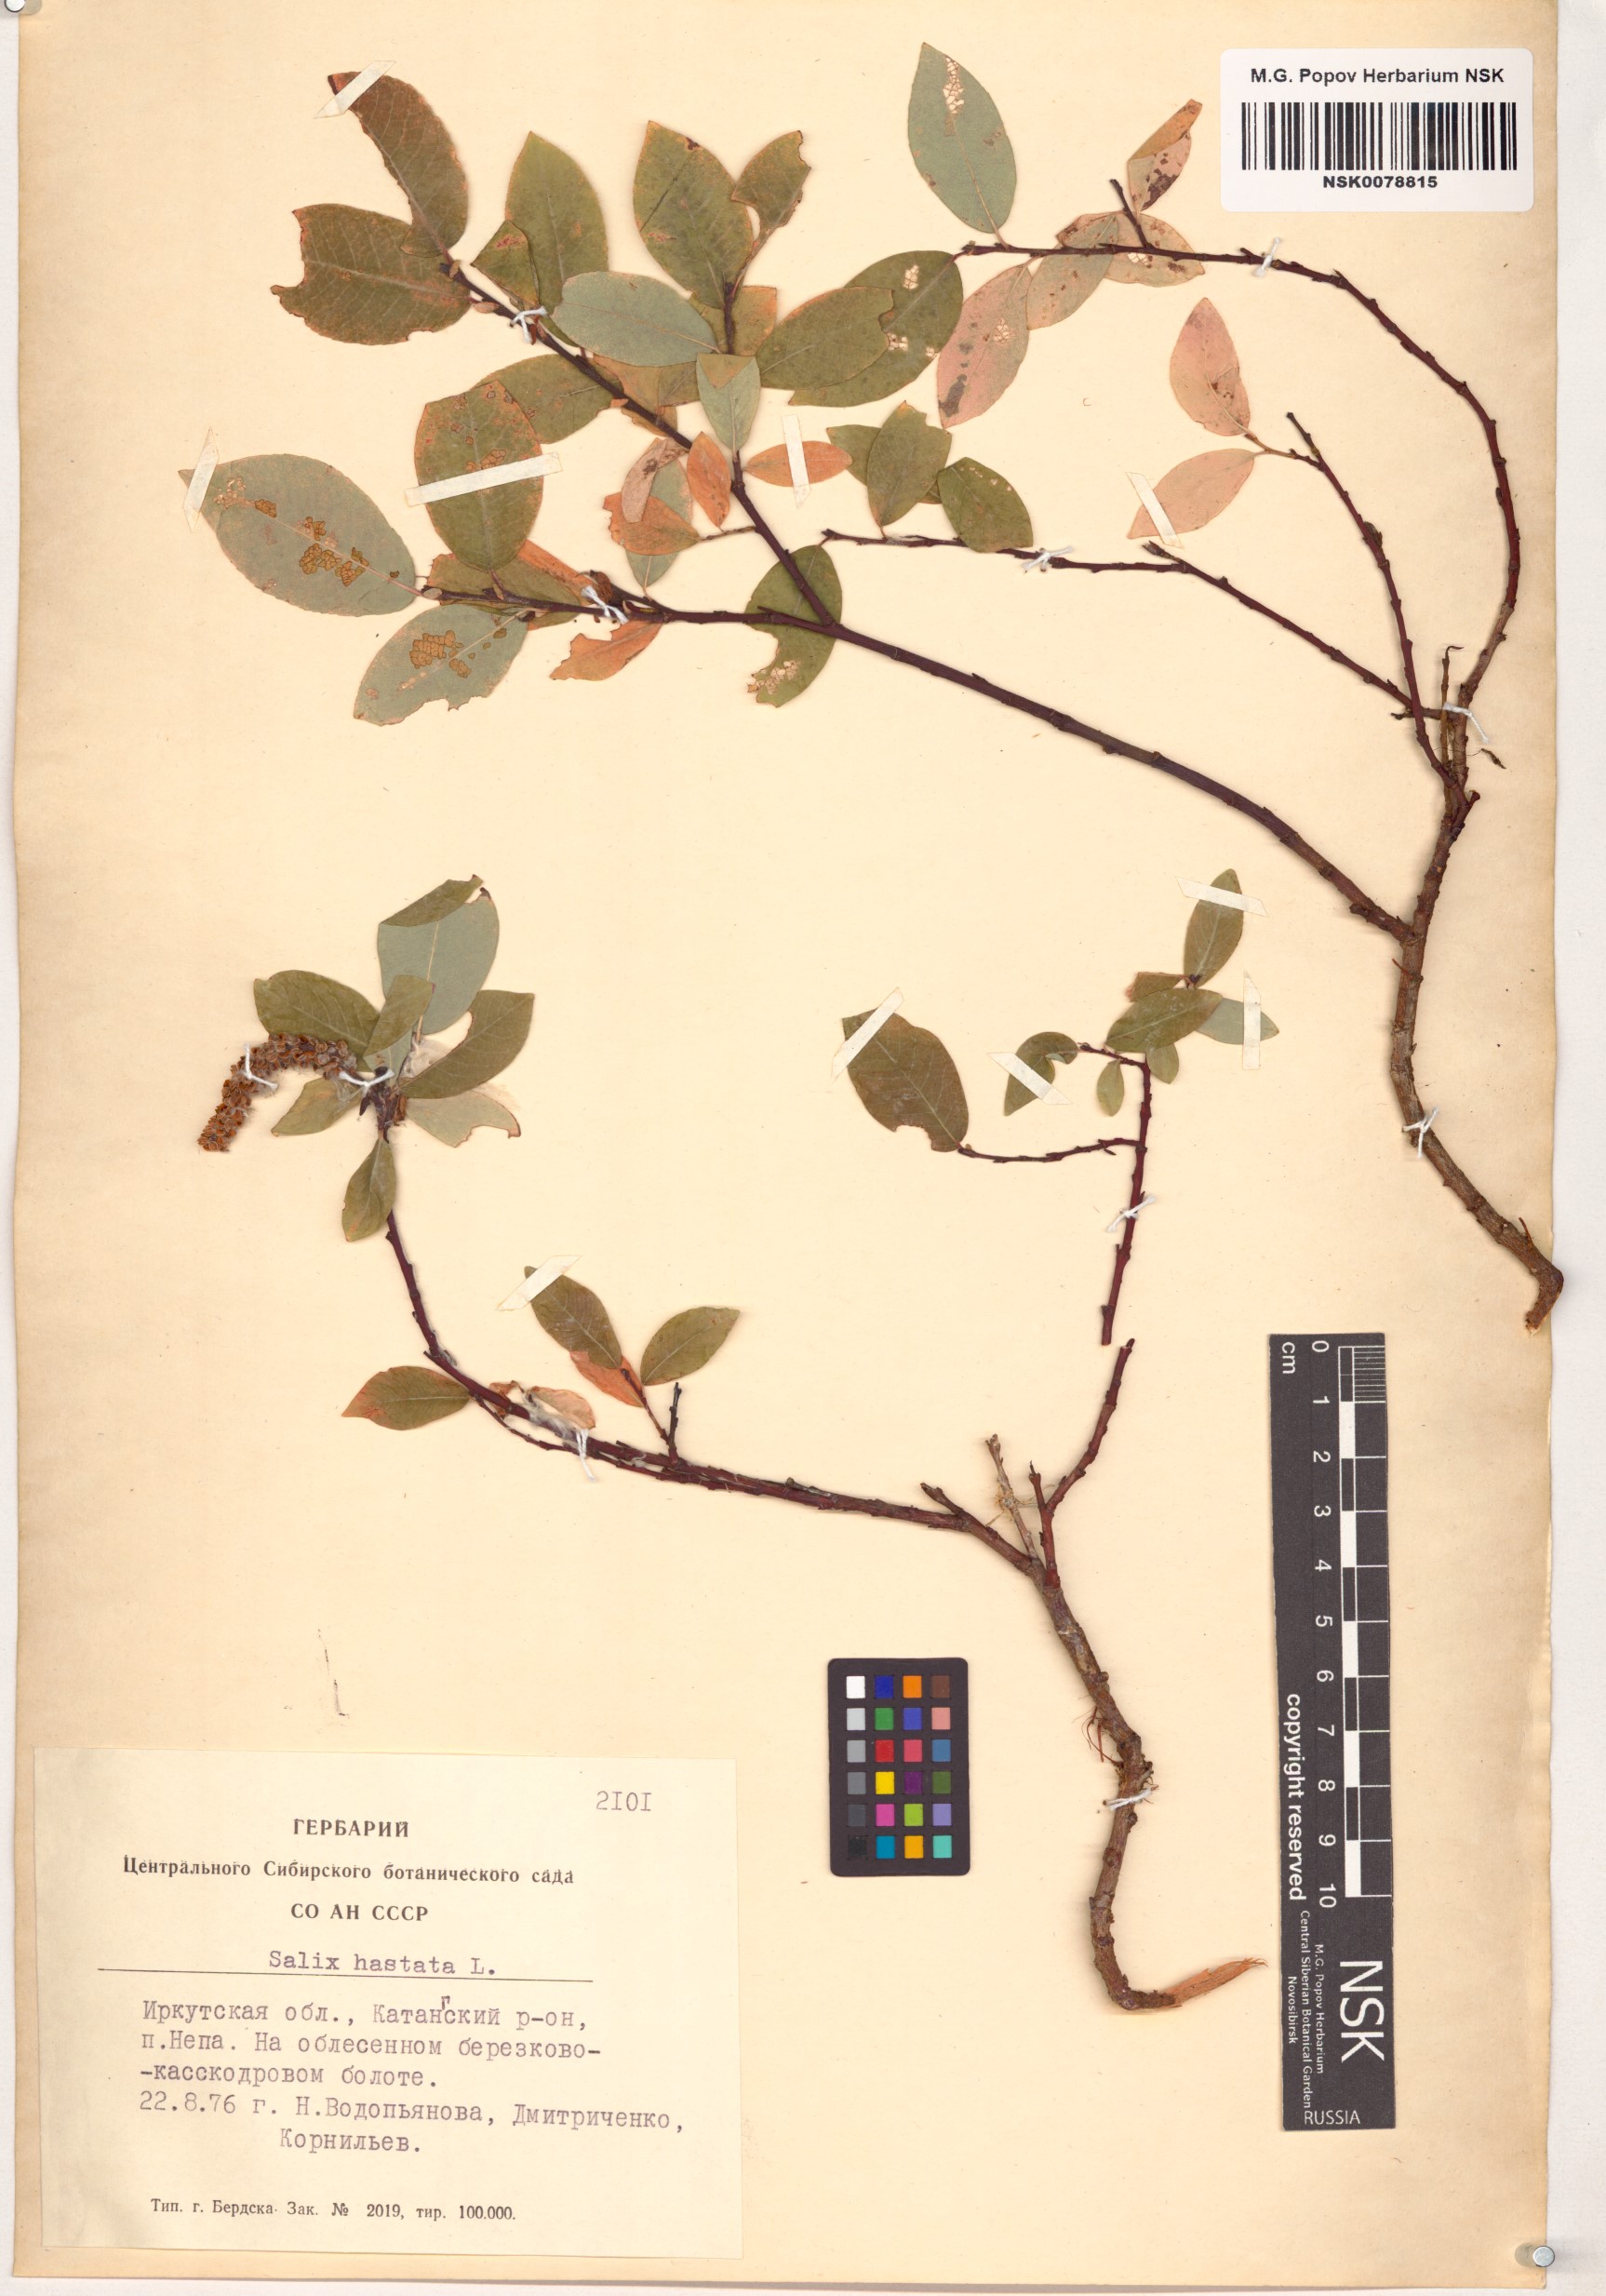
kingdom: Plantae
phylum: Tracheophyta
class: Magnoliopsida
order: Malpighiales
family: Salicaceae
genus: Salix
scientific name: Salix hastata
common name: Halberd willow
